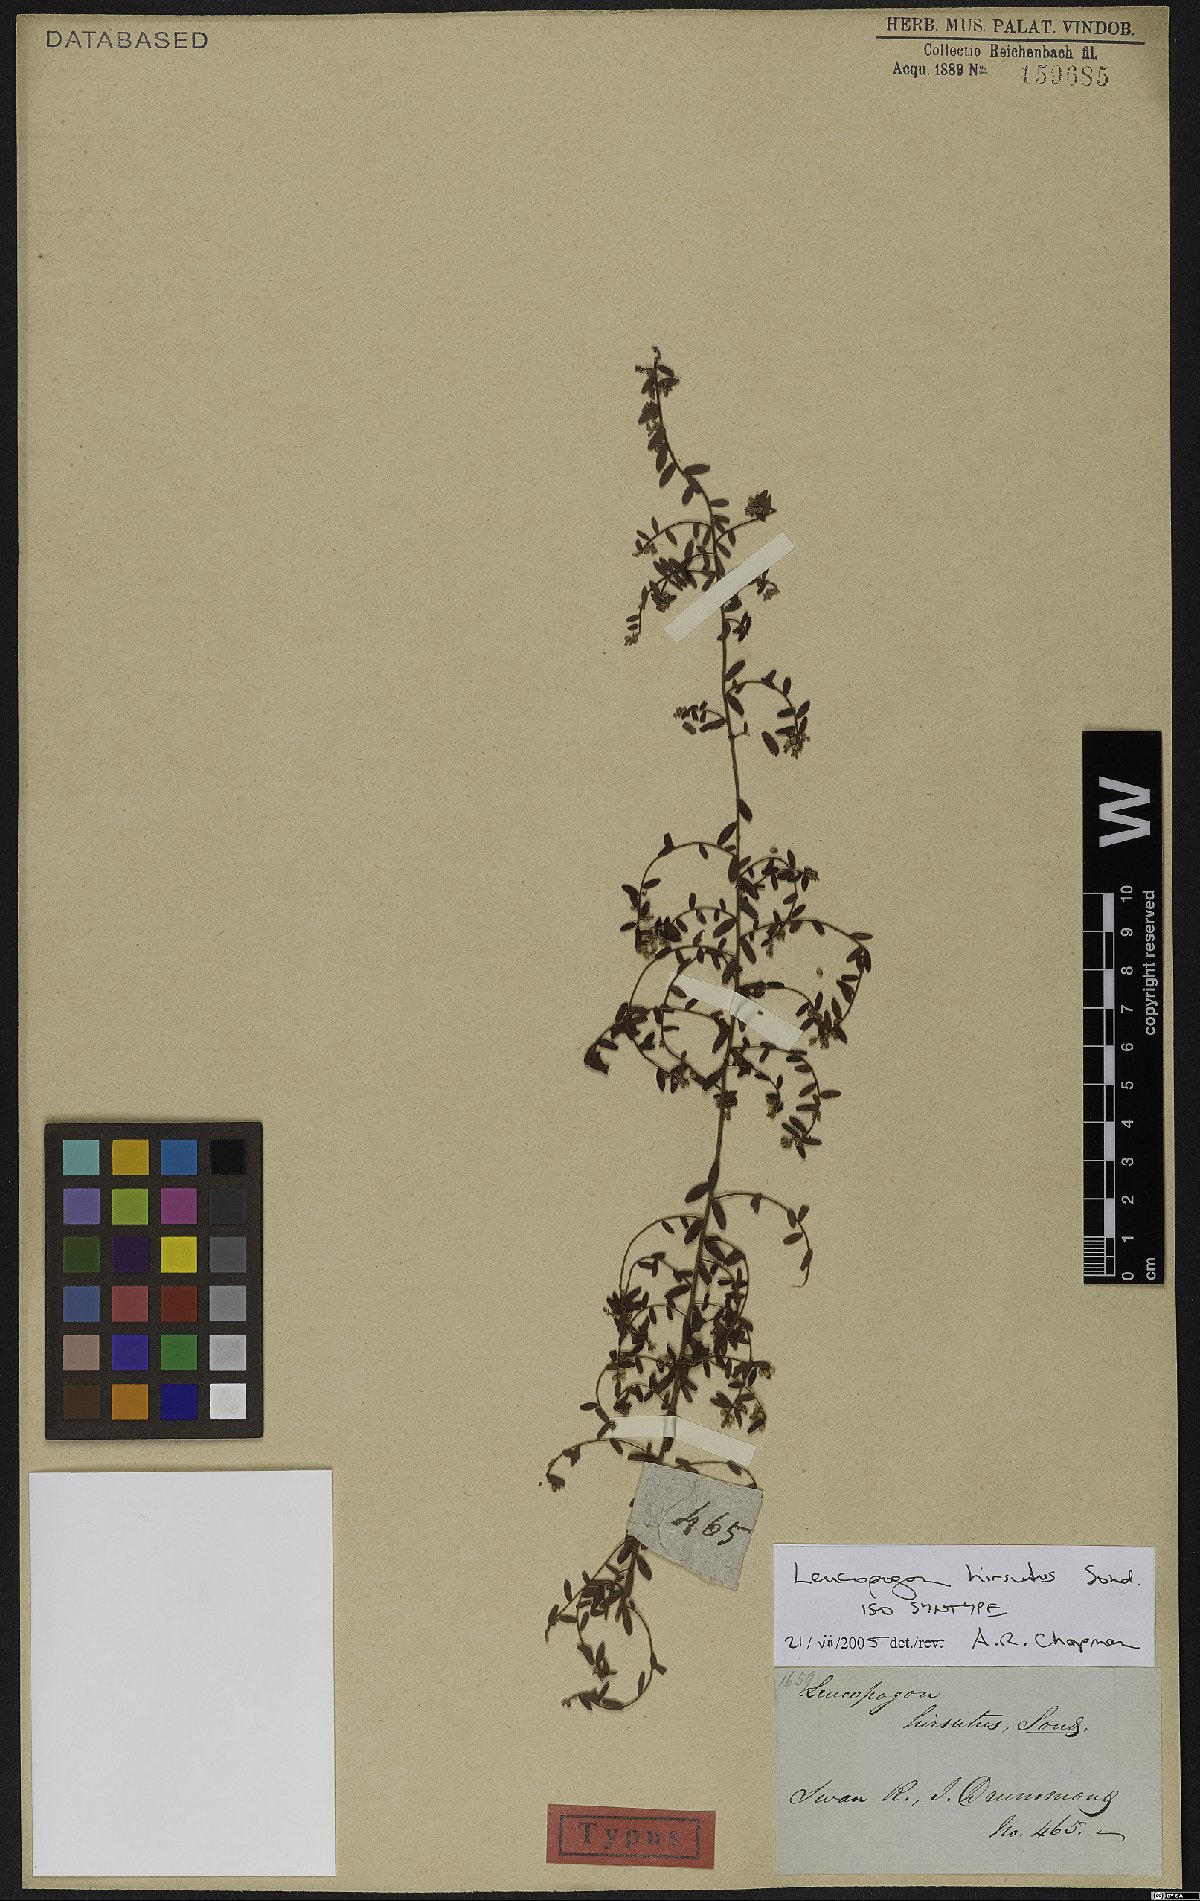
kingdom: Plantae
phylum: Tracheophyta
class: Magnoliopsida
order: Ericales
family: Ericaceae
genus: Leucopogon
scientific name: Leucopogon hirsutus
